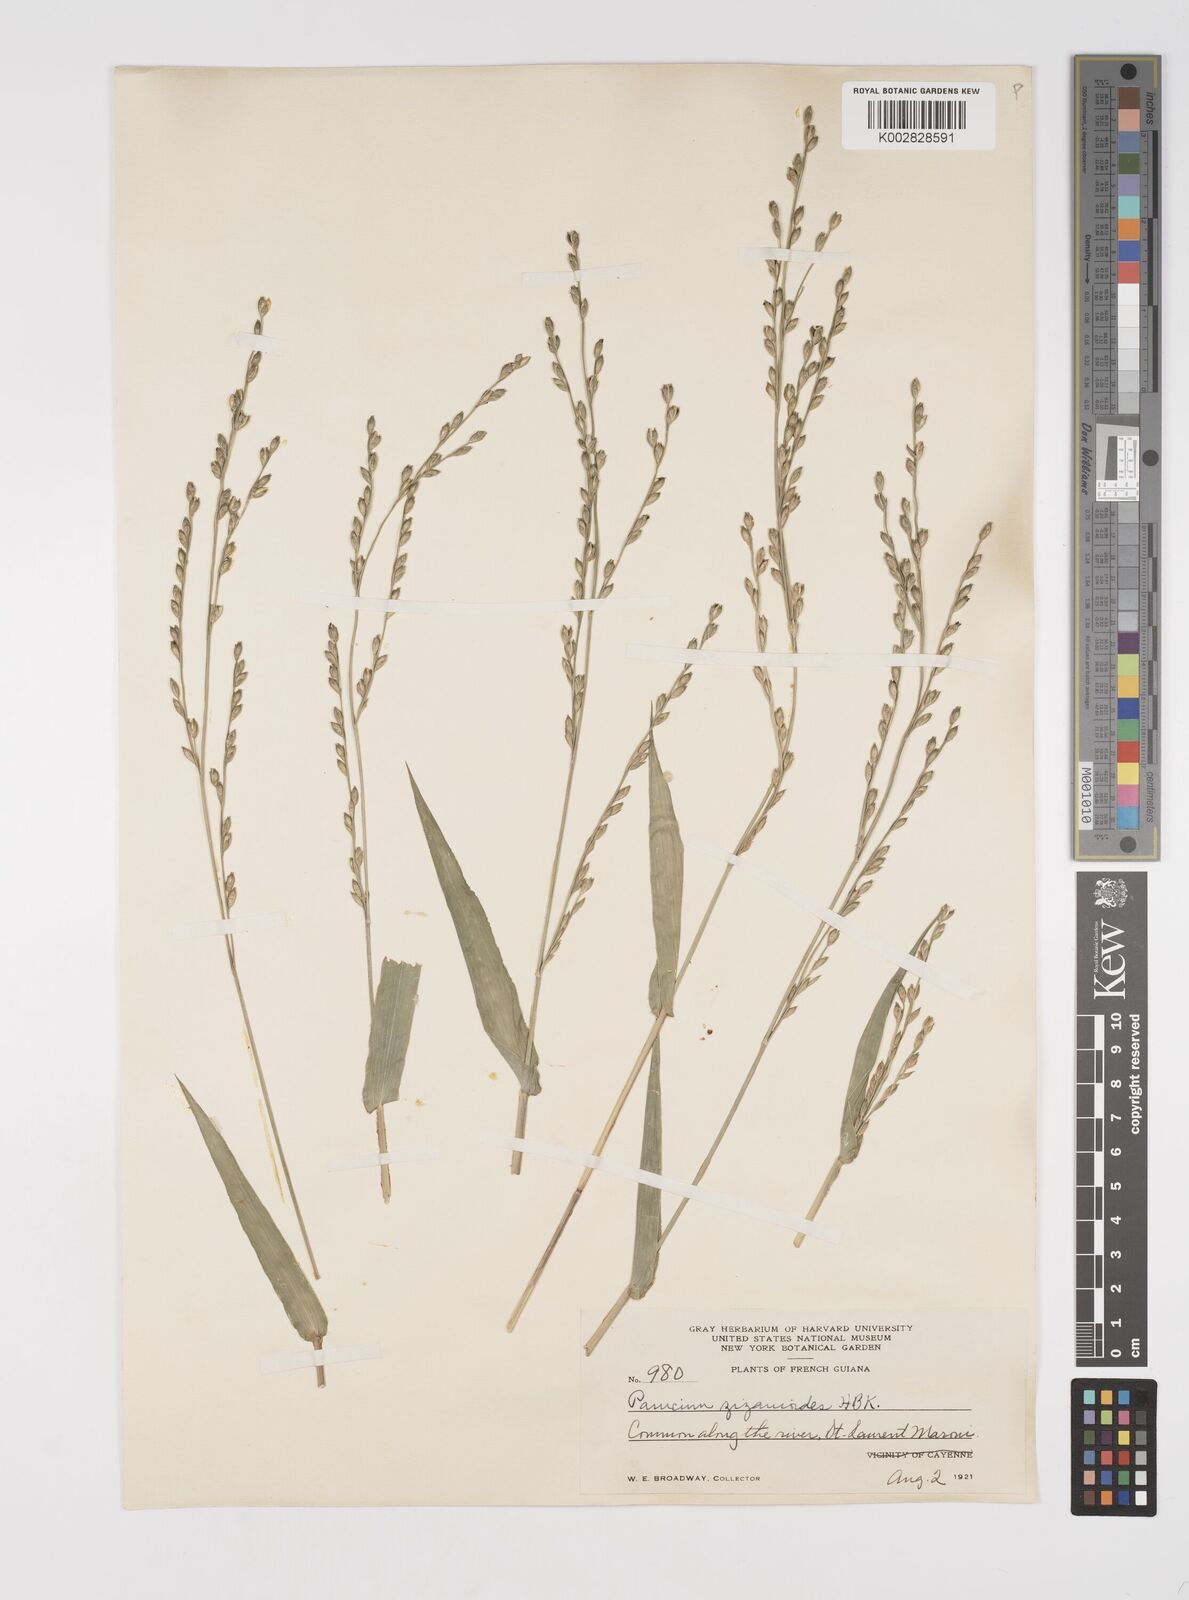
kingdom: Plantae
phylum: Tracheophyta
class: Liliopsida
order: Poales
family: Poaceae
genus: Acroceras
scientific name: Acroceras zizanioides
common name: Oat grass
